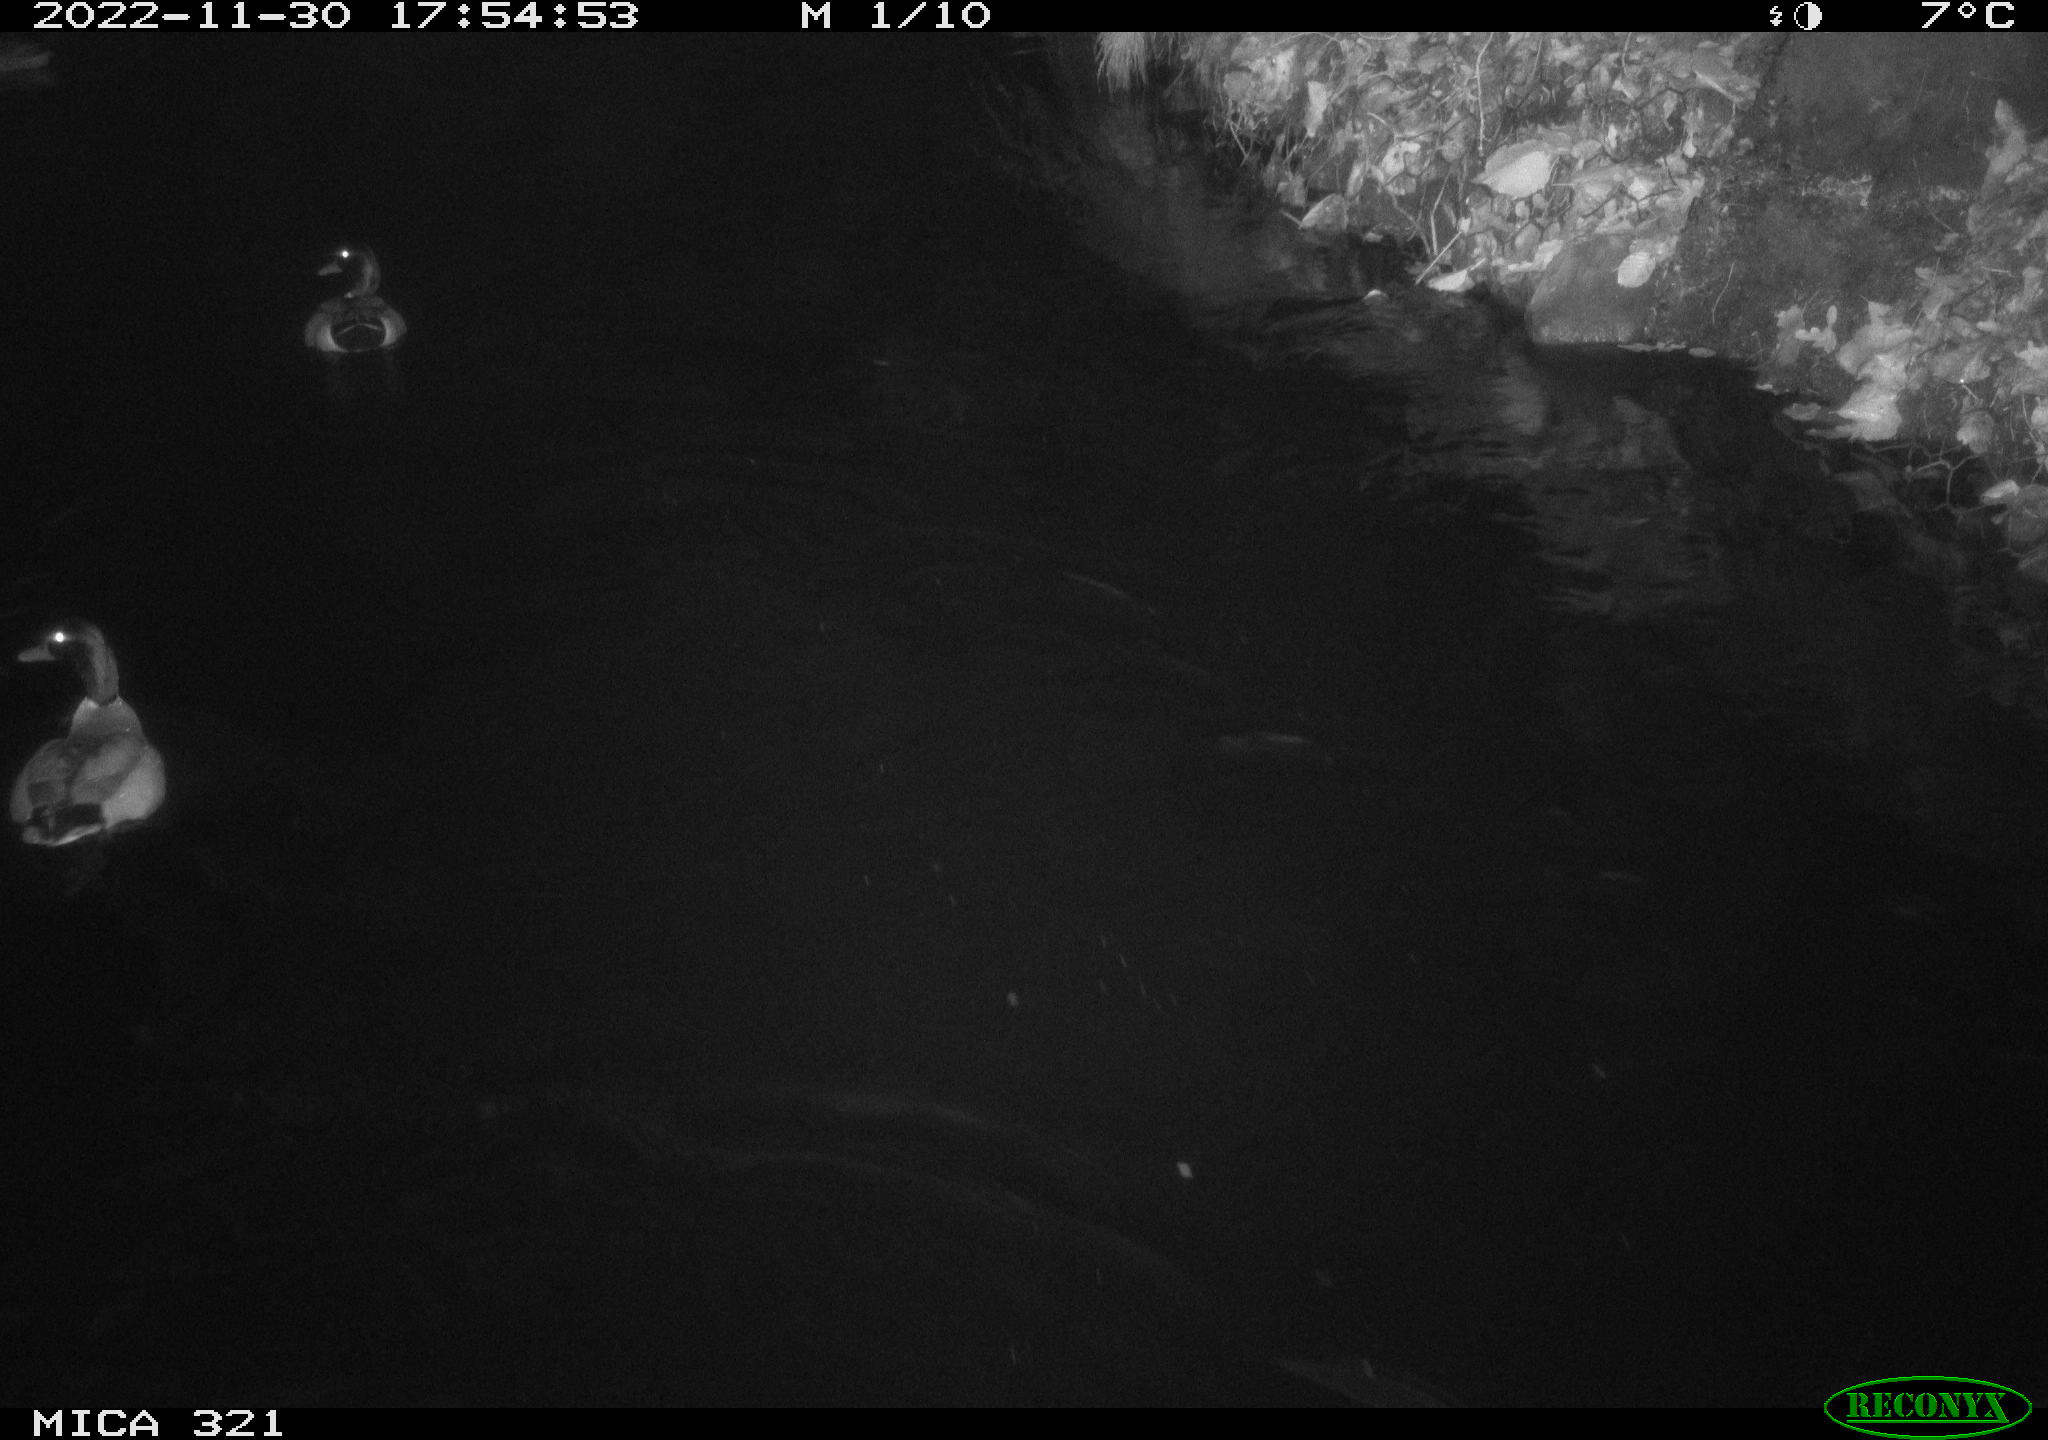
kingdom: Animalia
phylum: Chordata
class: Aves
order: Anseriformes
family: Anatidae
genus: Anas
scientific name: Anas
